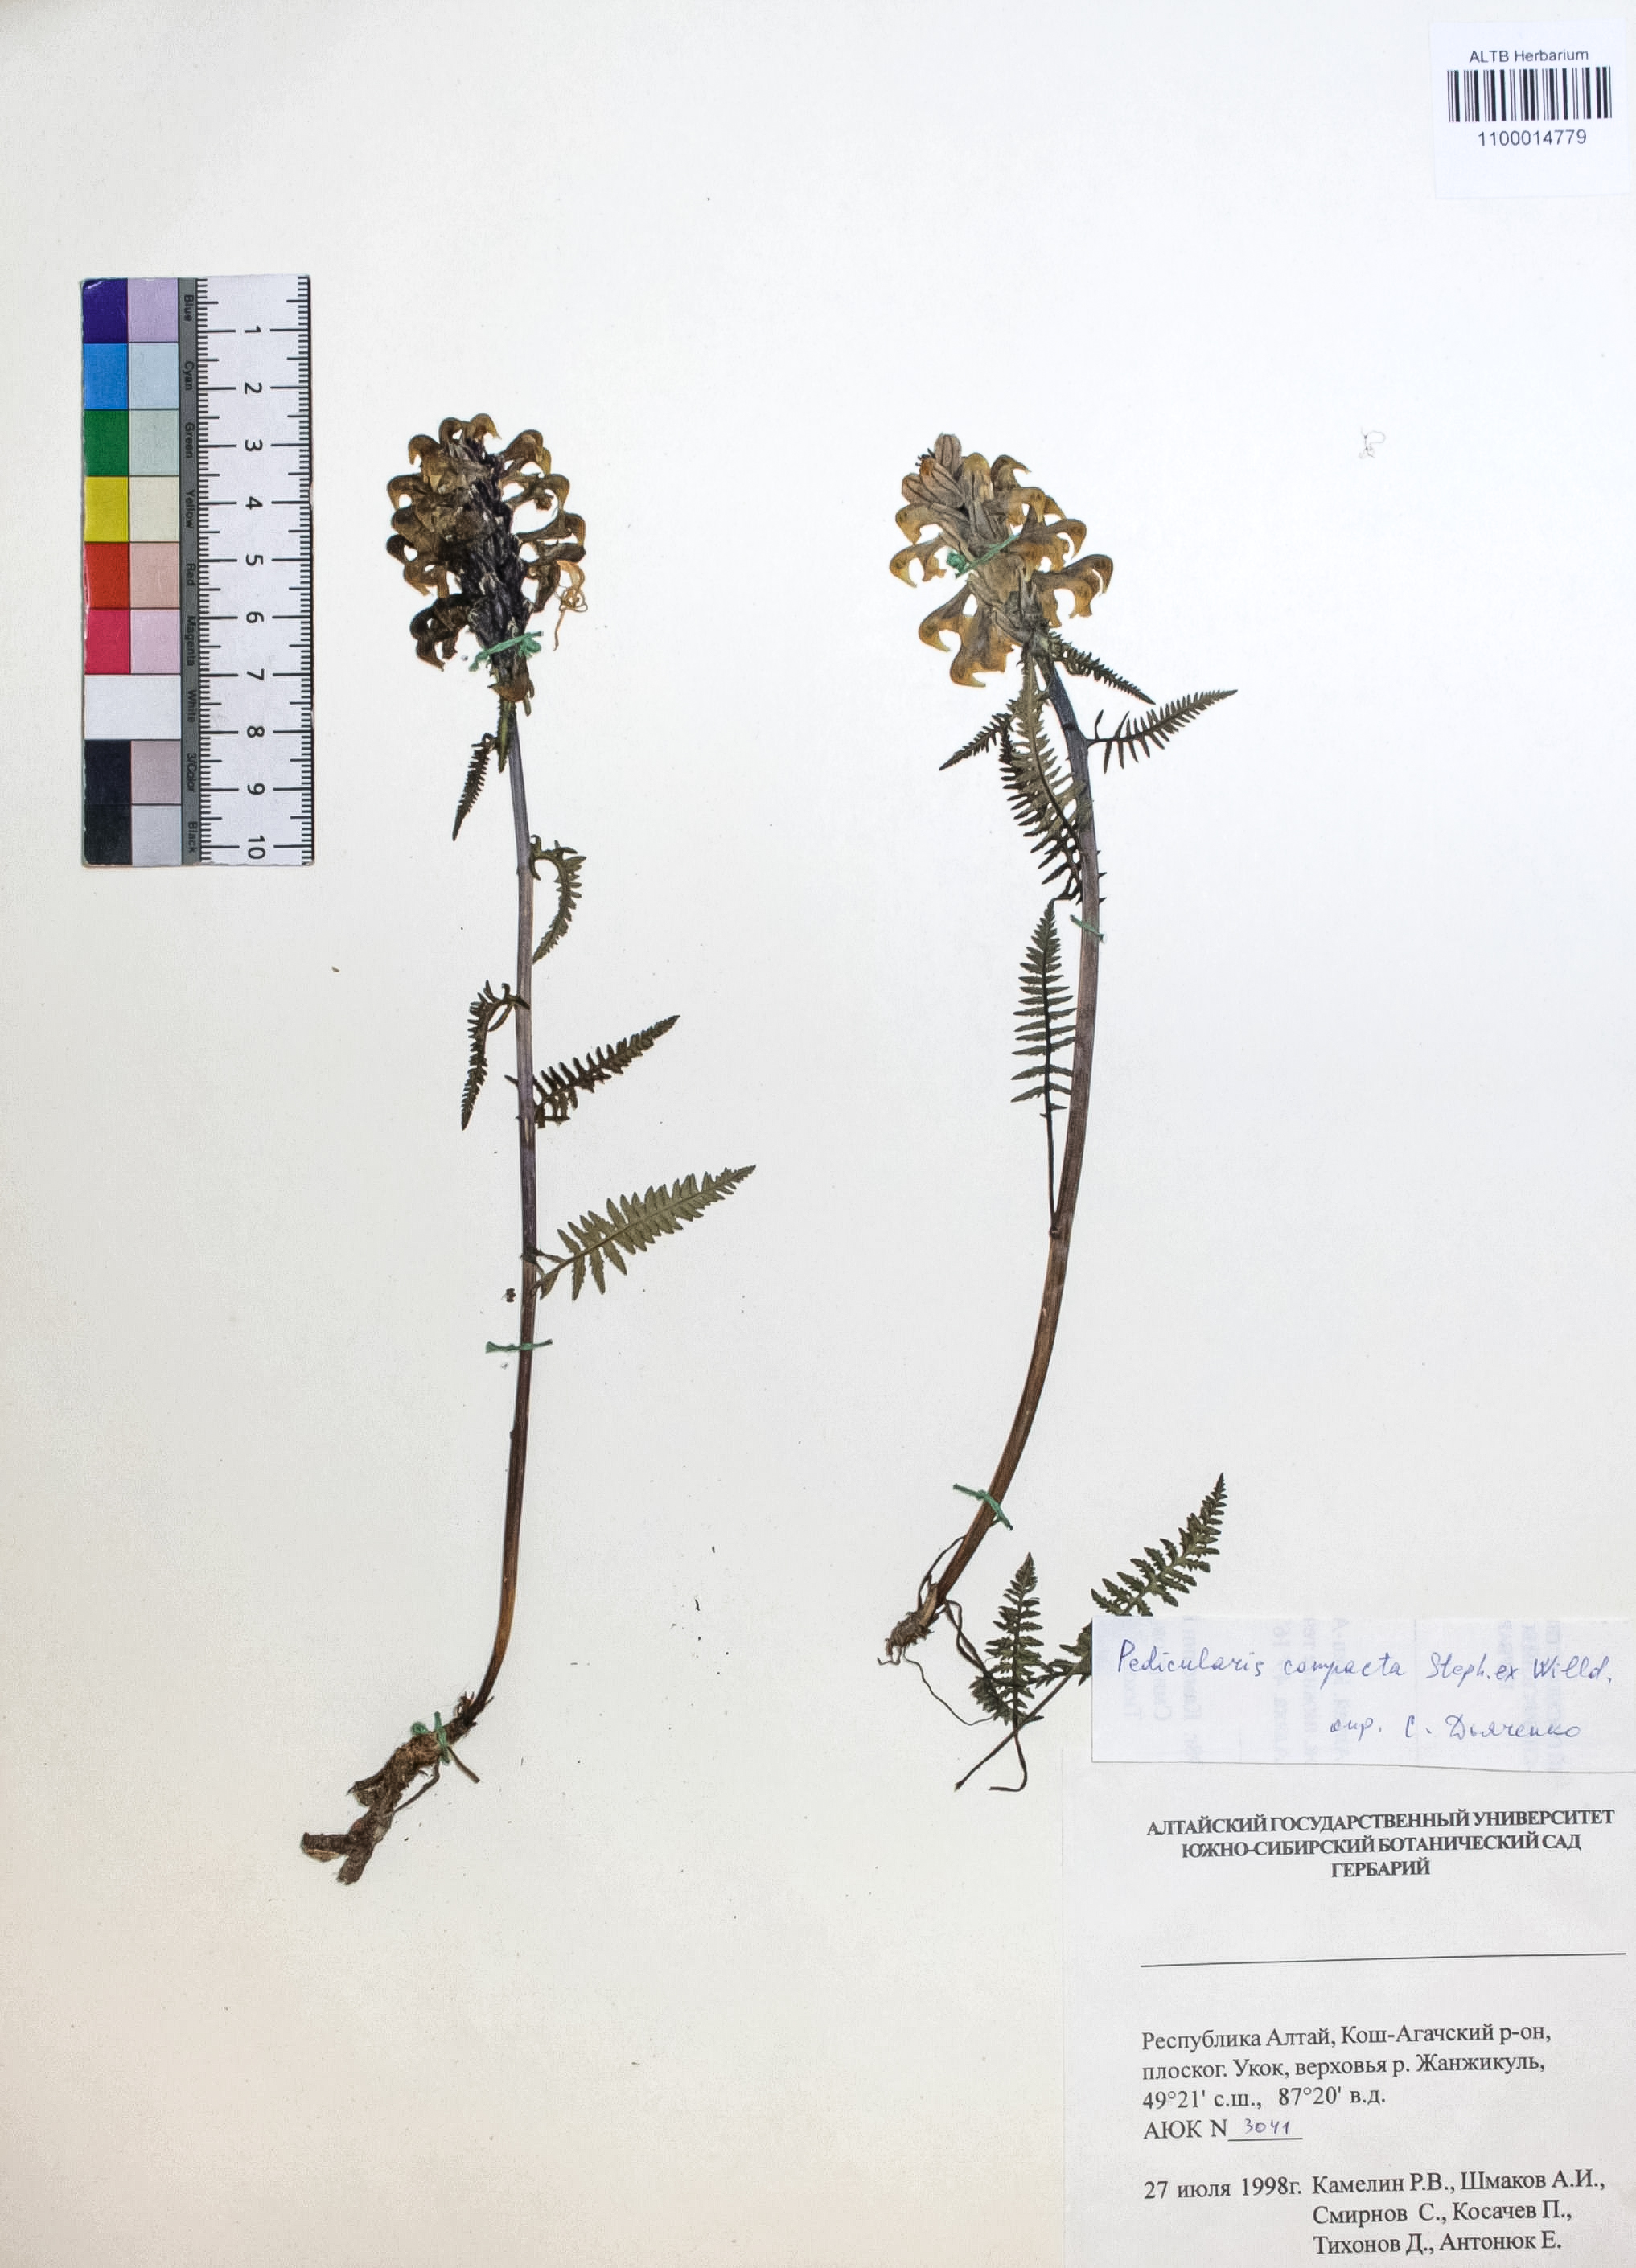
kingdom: Plantae
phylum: Tracheophyta
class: Magnoliopsida
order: Lamiales
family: Orobanchaceae
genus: Pedicularis
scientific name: Pedicularis compacta
